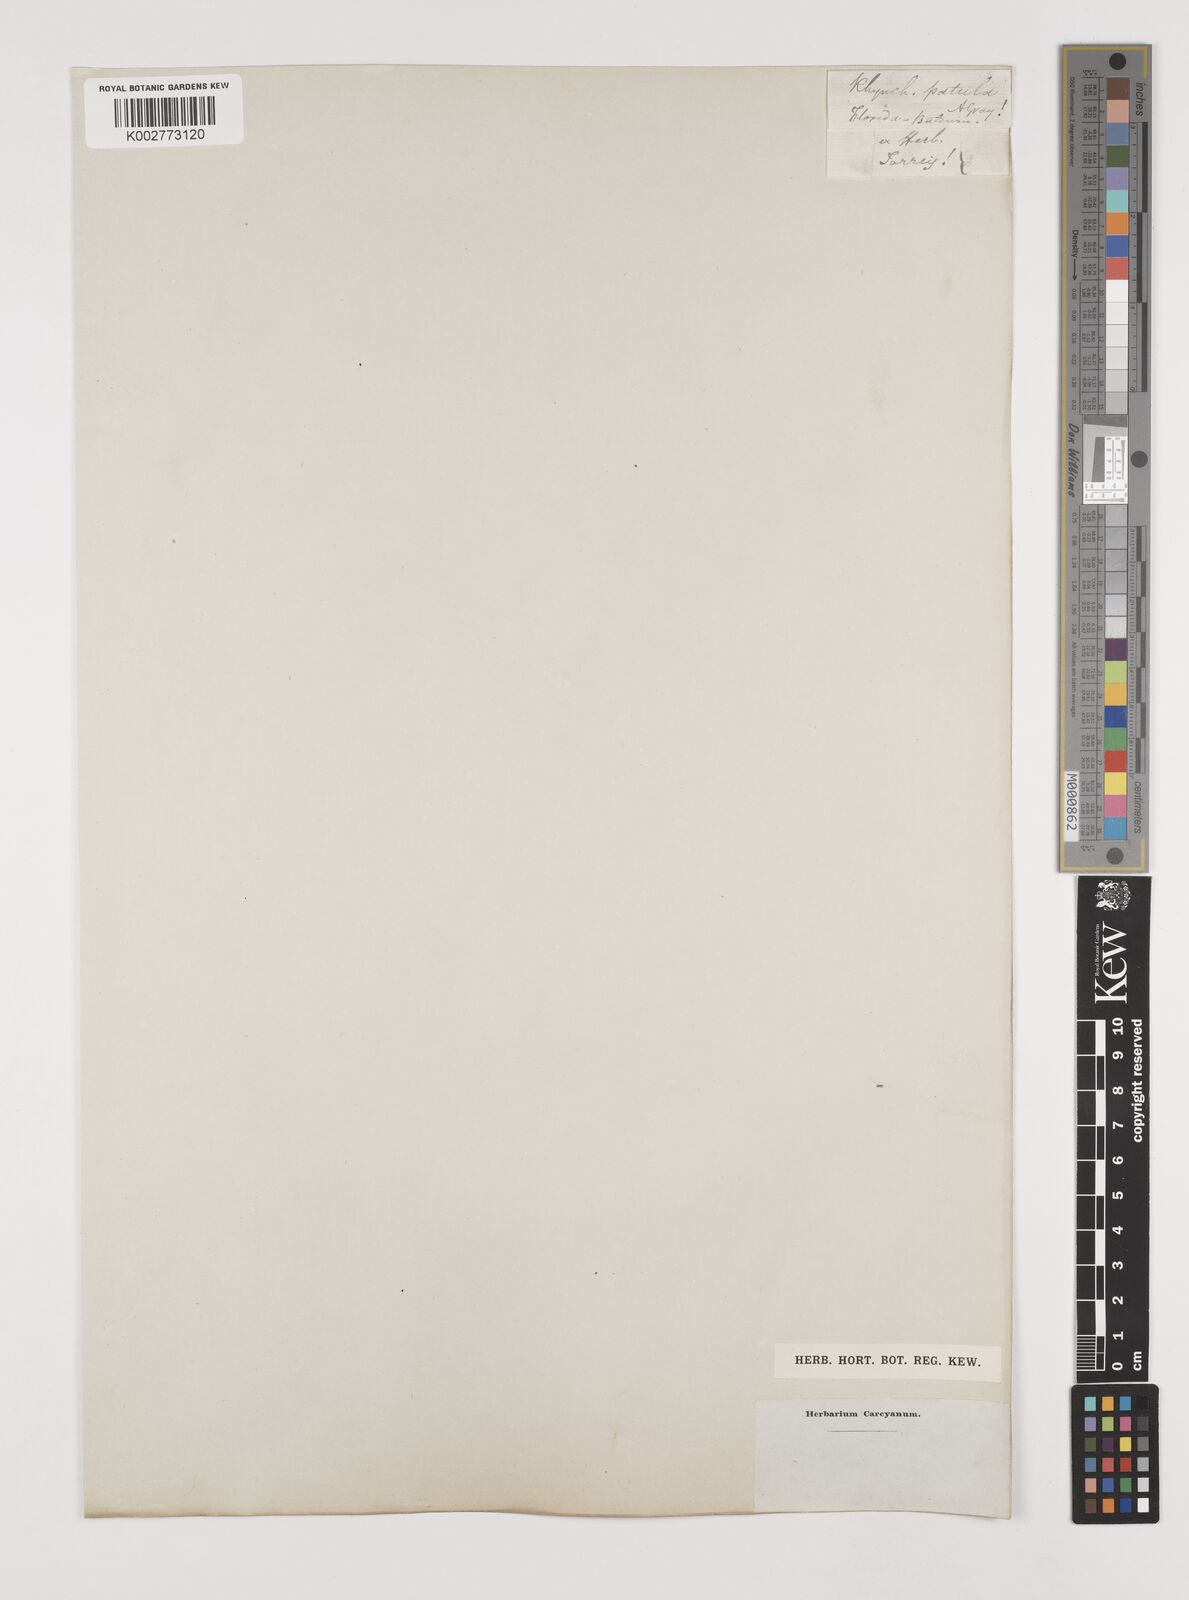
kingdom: Plantae
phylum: Tracheophyta
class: Liliopsida
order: Poales
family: Cyperaceae
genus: Rhynchospora
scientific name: Rhynchospora
